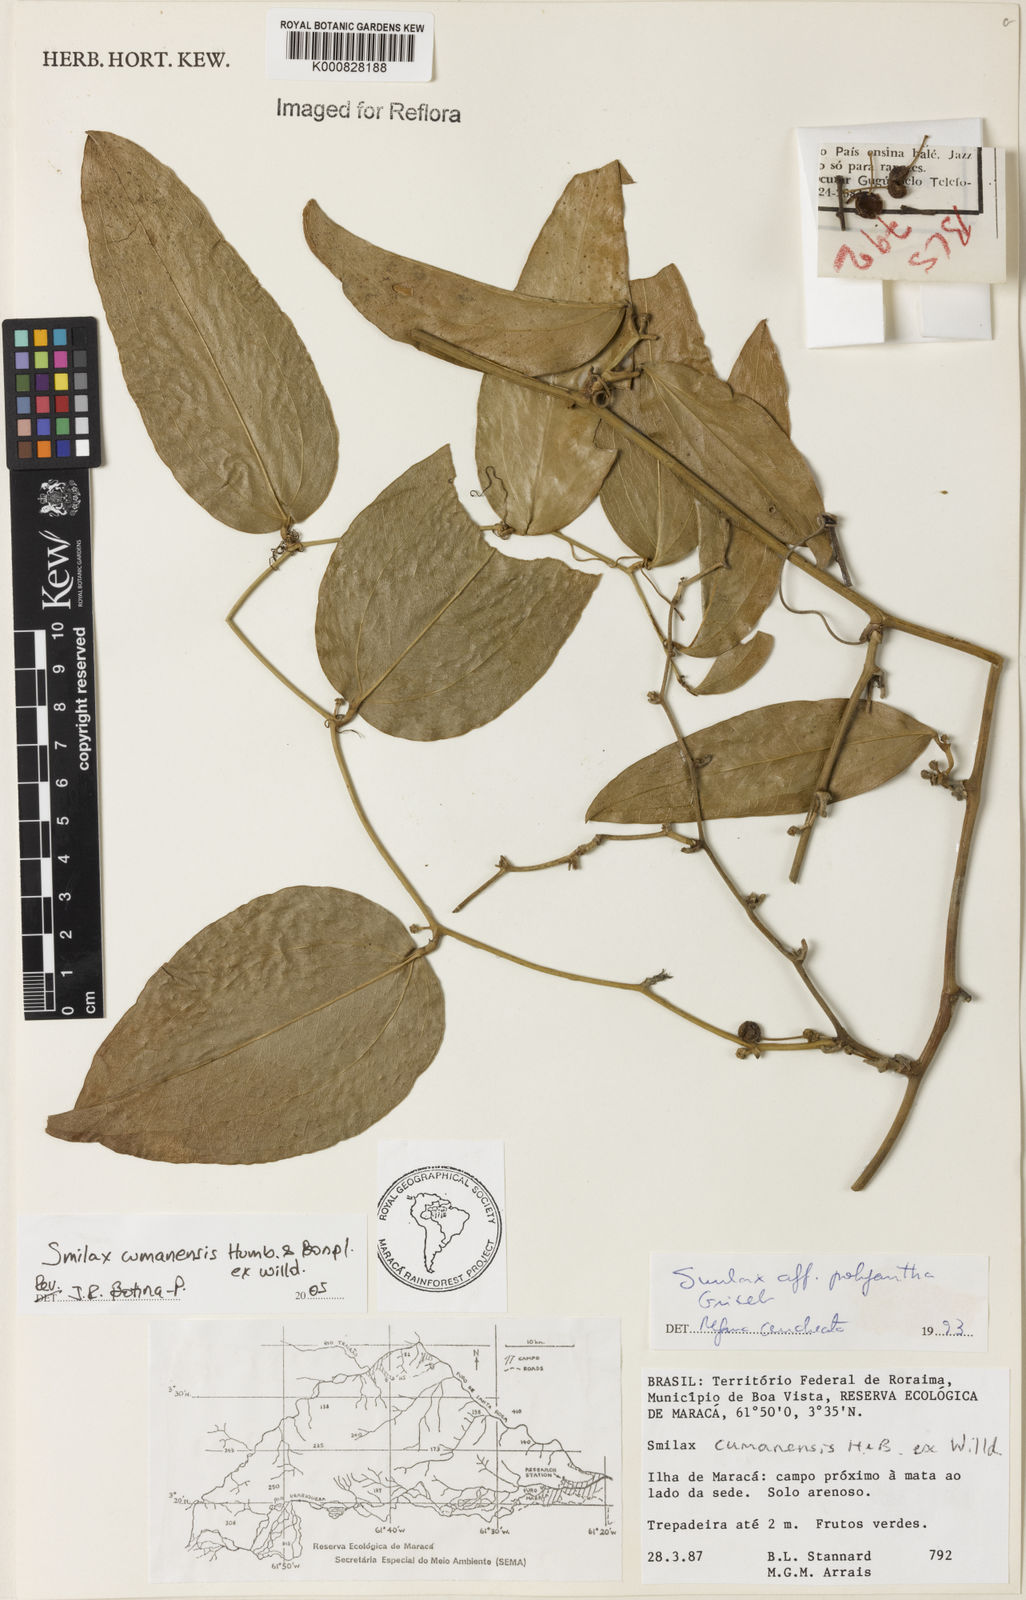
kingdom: Plantae
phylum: Tracheophyta
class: Liliopsida
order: Liliales
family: Smilacaceae
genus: Smilax
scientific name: Smilax oblongata
